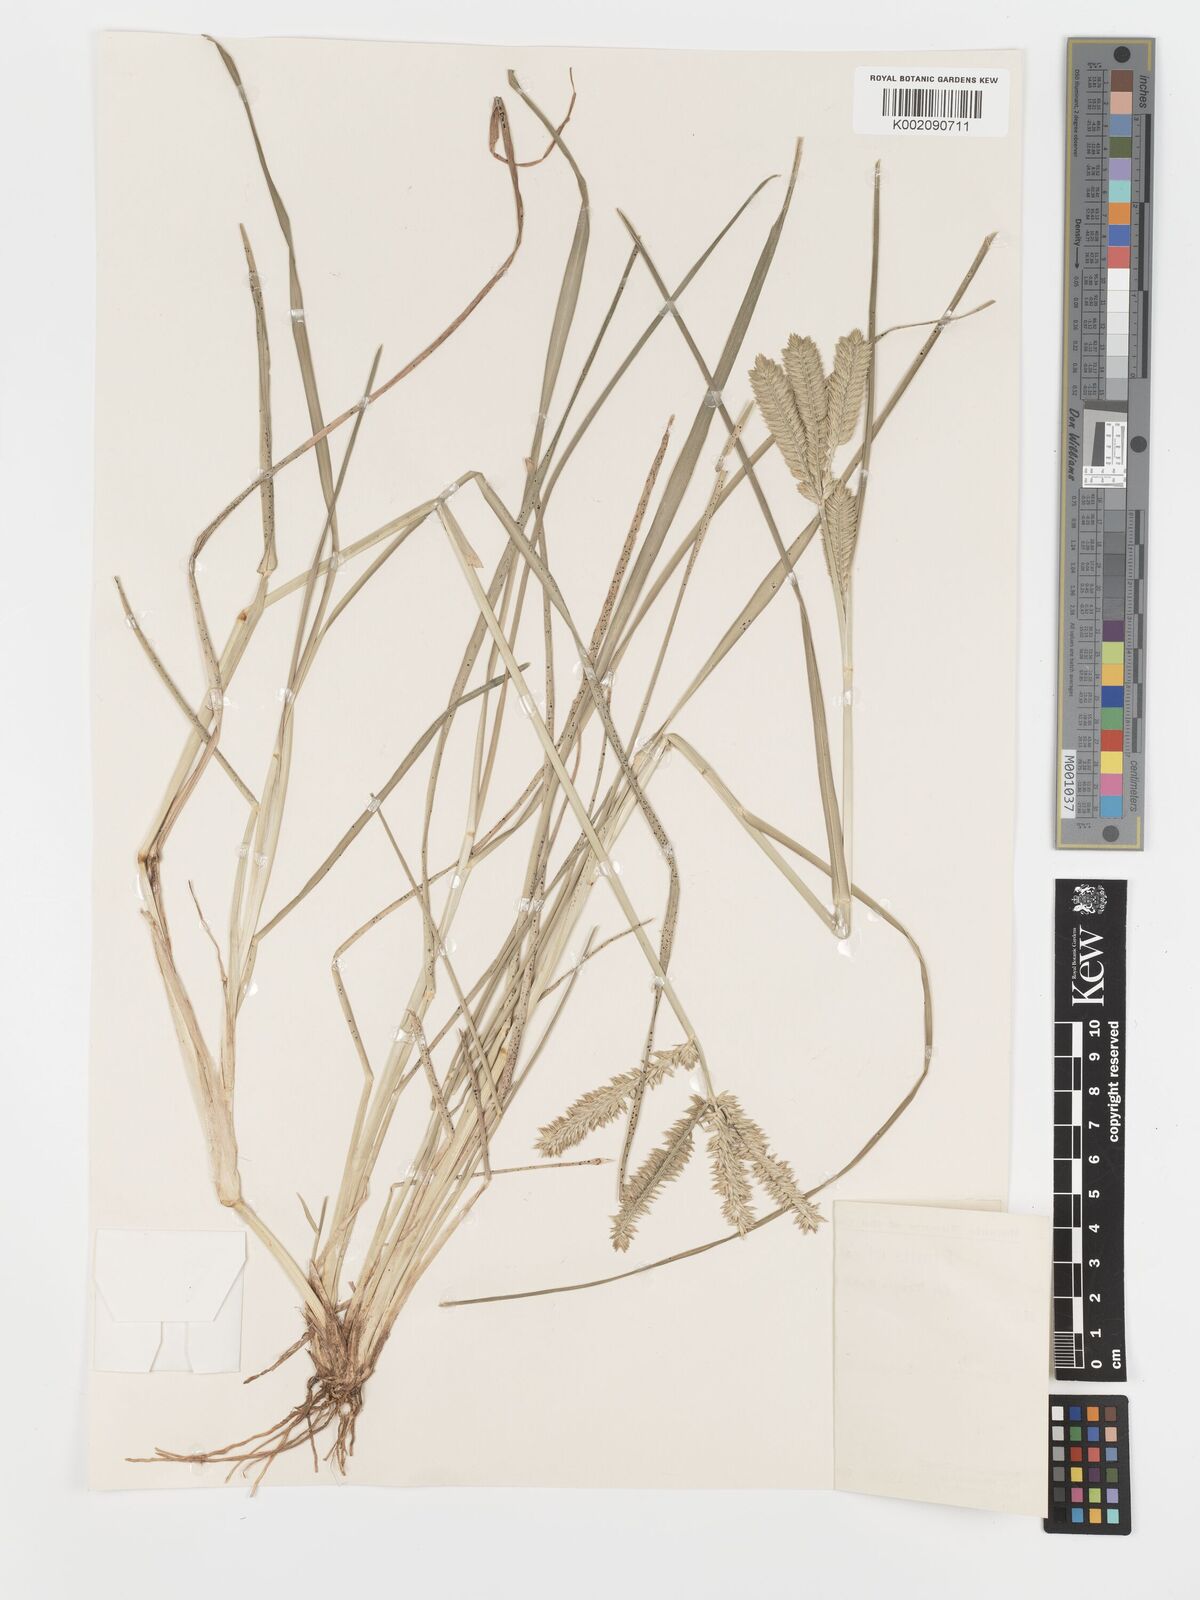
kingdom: Plantae
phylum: Tracheophyta
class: Liliopsida
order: Poales
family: Poaceae
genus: Eleusine
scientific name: Eleusine tristachya
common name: American yard-grass
